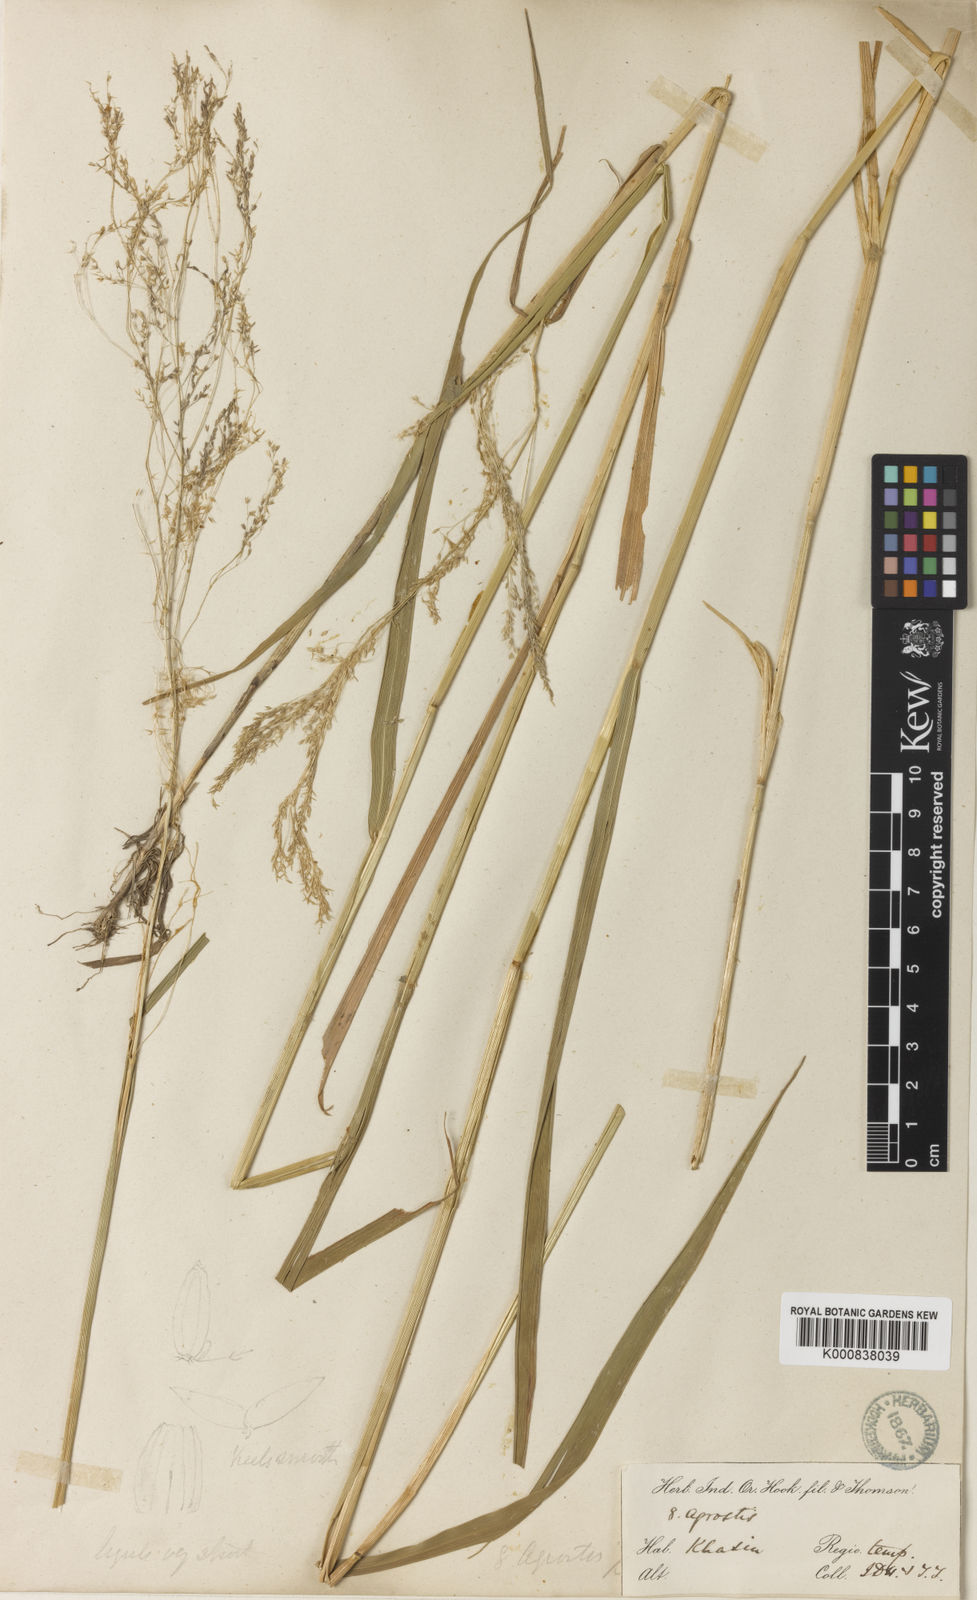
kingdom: Plantae
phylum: Tracheophyta
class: Liliopsida
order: Poales
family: Poaceae
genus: Agrostis
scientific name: Agrostis micrantha
